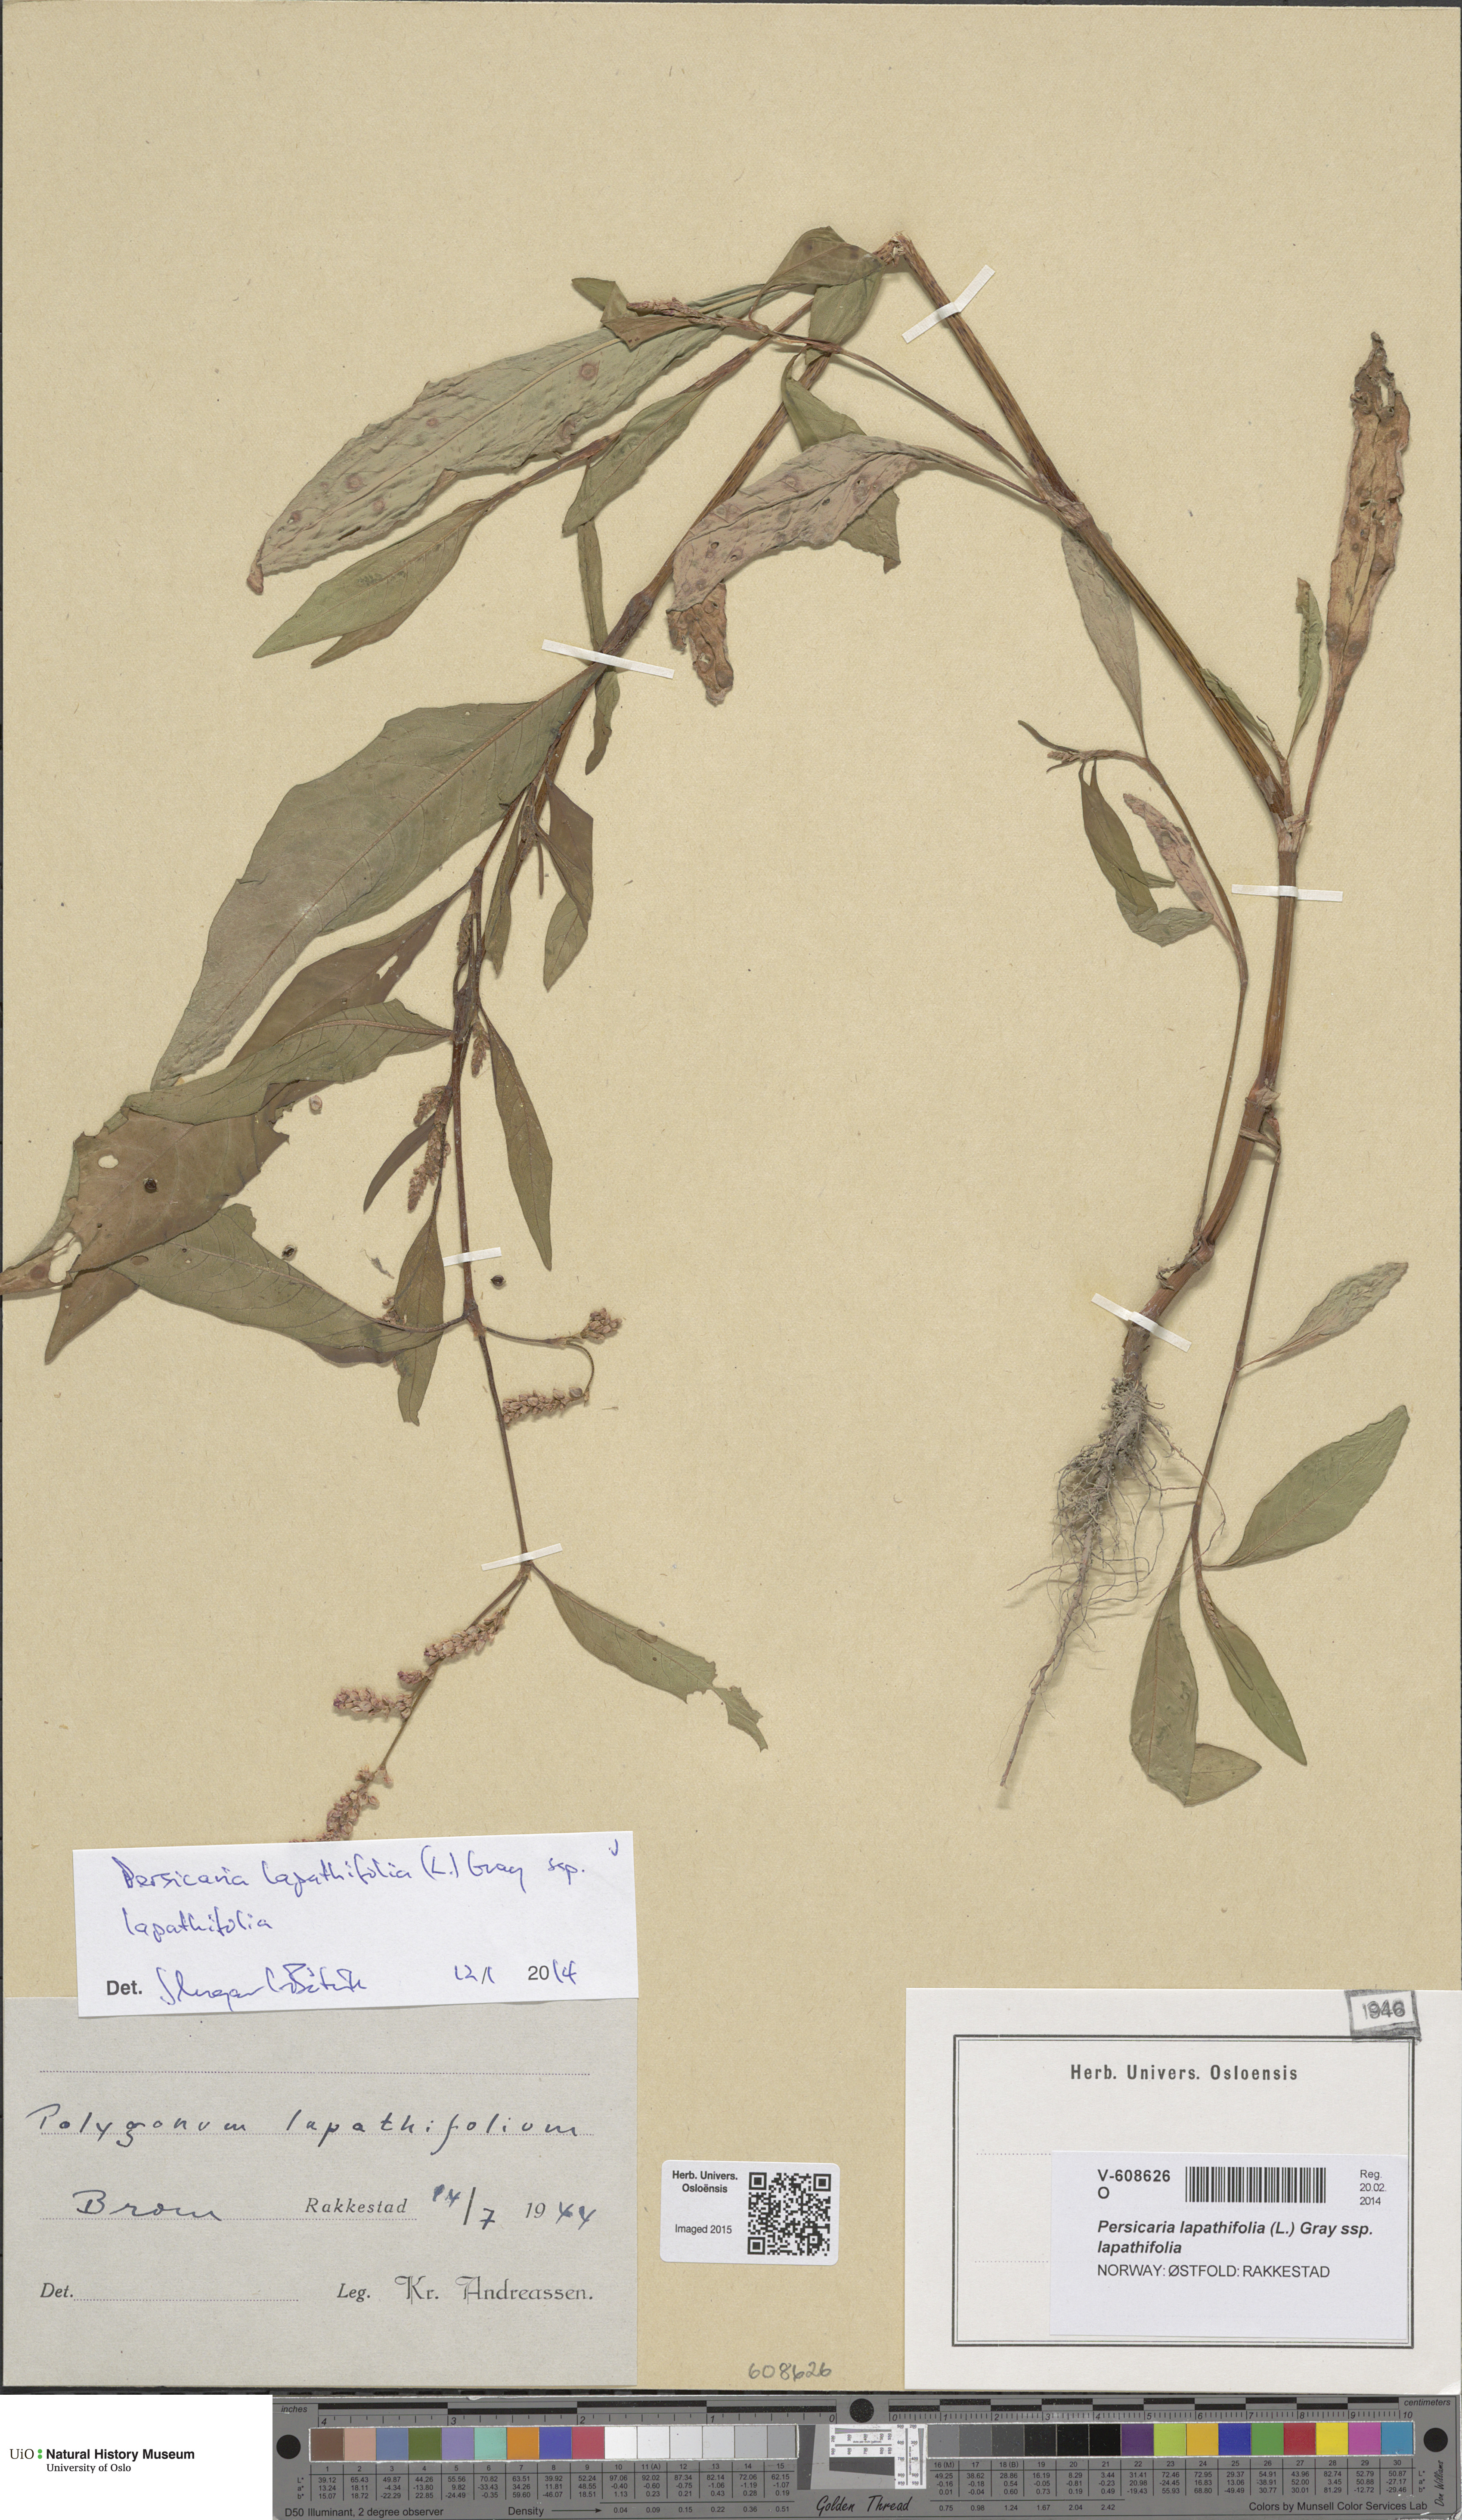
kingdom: Plantae
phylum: Tracheophyta
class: Magnoliopsida
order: Caryophyllales
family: Polygonaceae
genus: Persicaria
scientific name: Persicaria lapathifolia
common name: Curlytop knotweed
